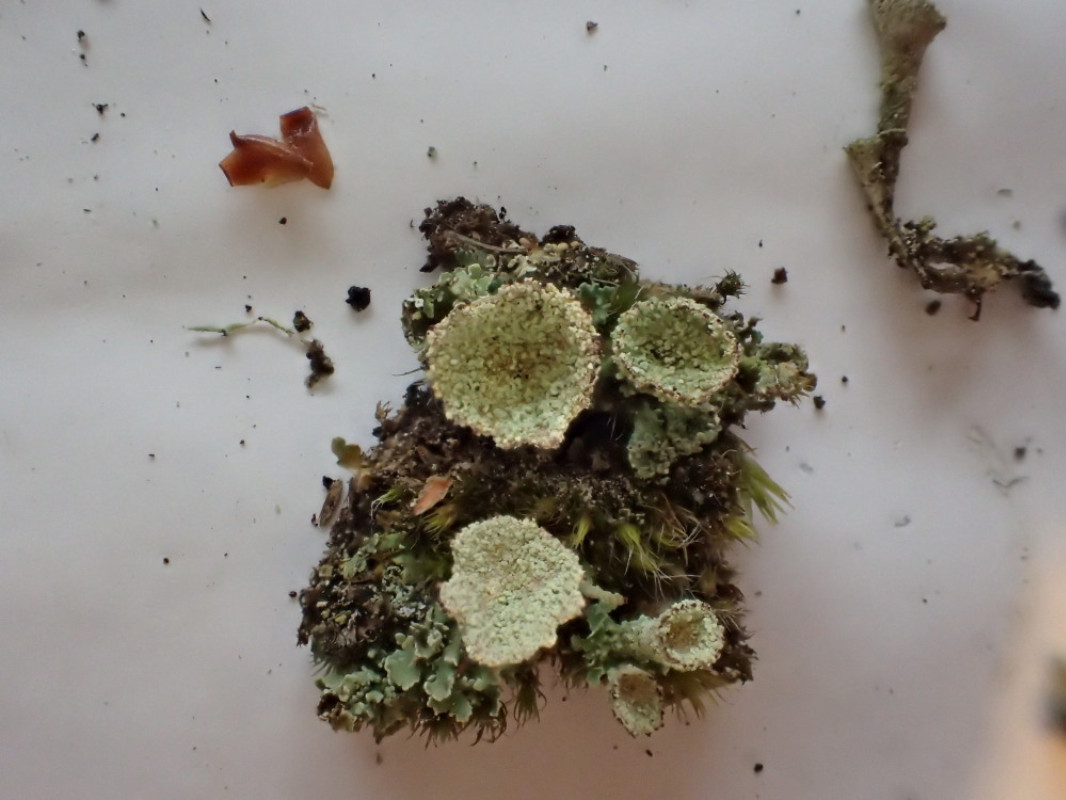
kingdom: Fungi
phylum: Ascomycota
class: Lecanoromycetes
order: Lecanorales
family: Cladoniaceae
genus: Cladonia
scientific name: Cladonia
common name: brungrøn bægerlav
